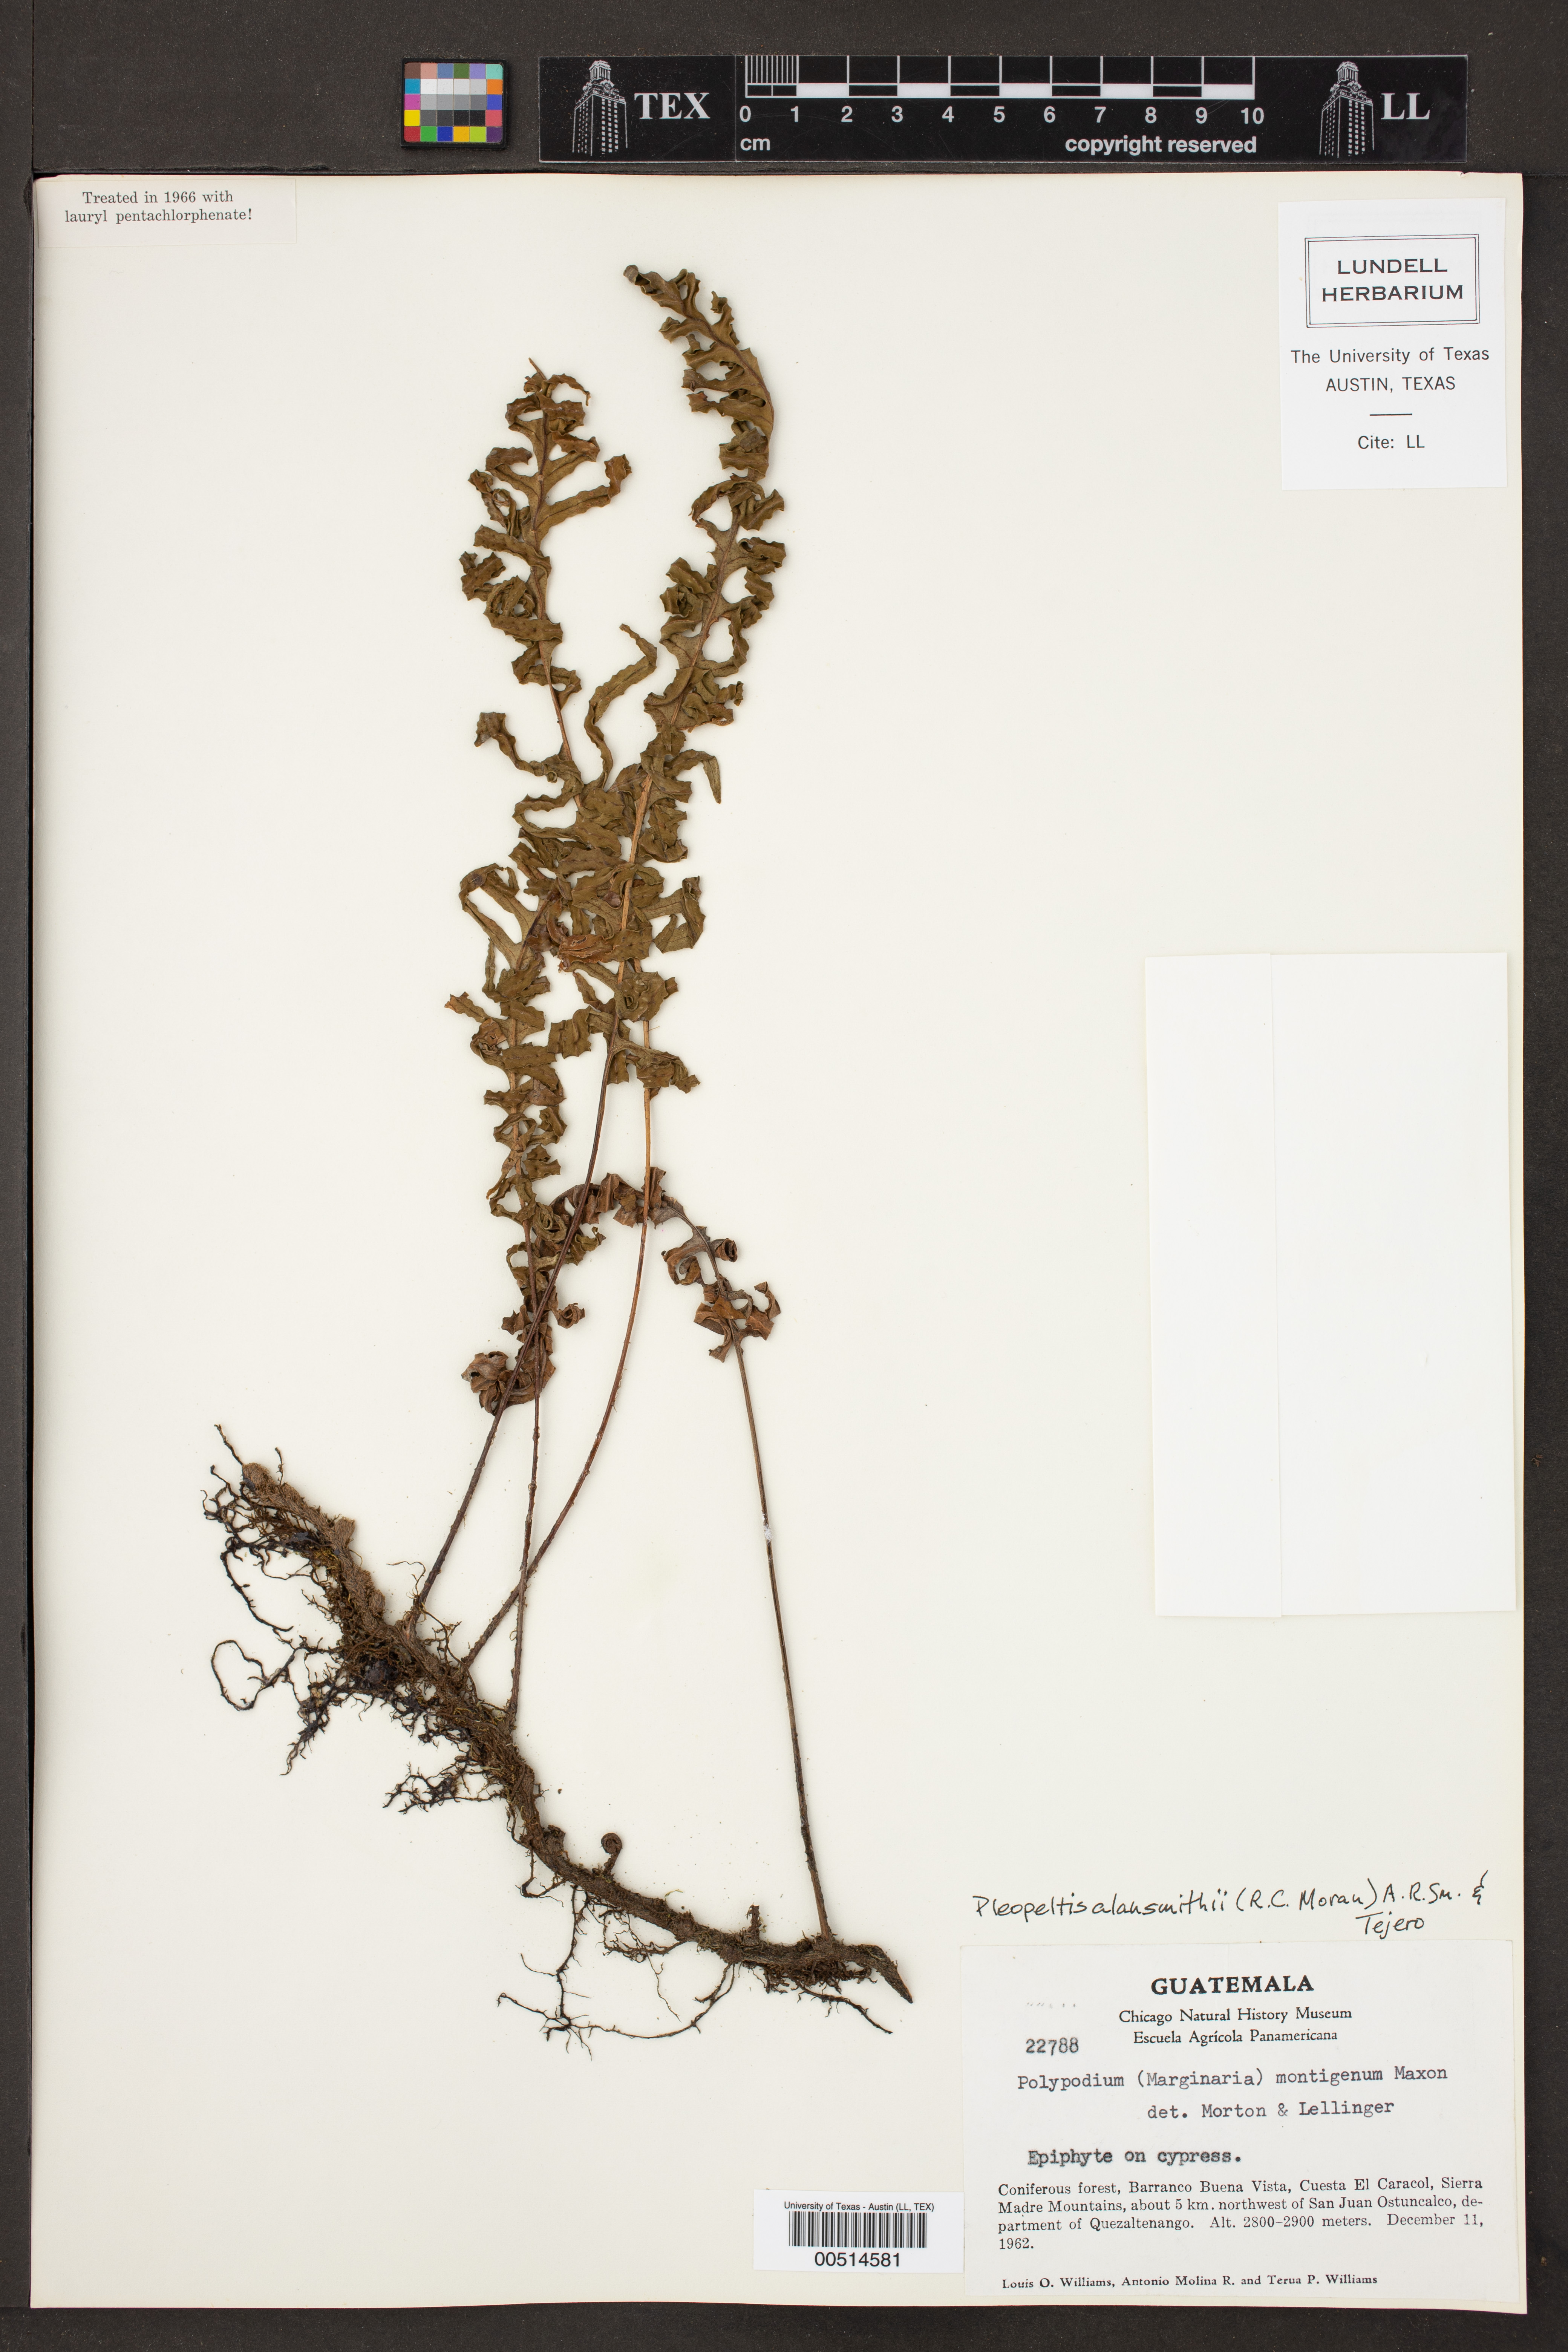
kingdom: Plantae
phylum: Tracheophyta
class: Polypodiopsida
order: Polypodiales
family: Polypodiaceae
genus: Pleopeltis
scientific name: Pleopeltis alansmithii
